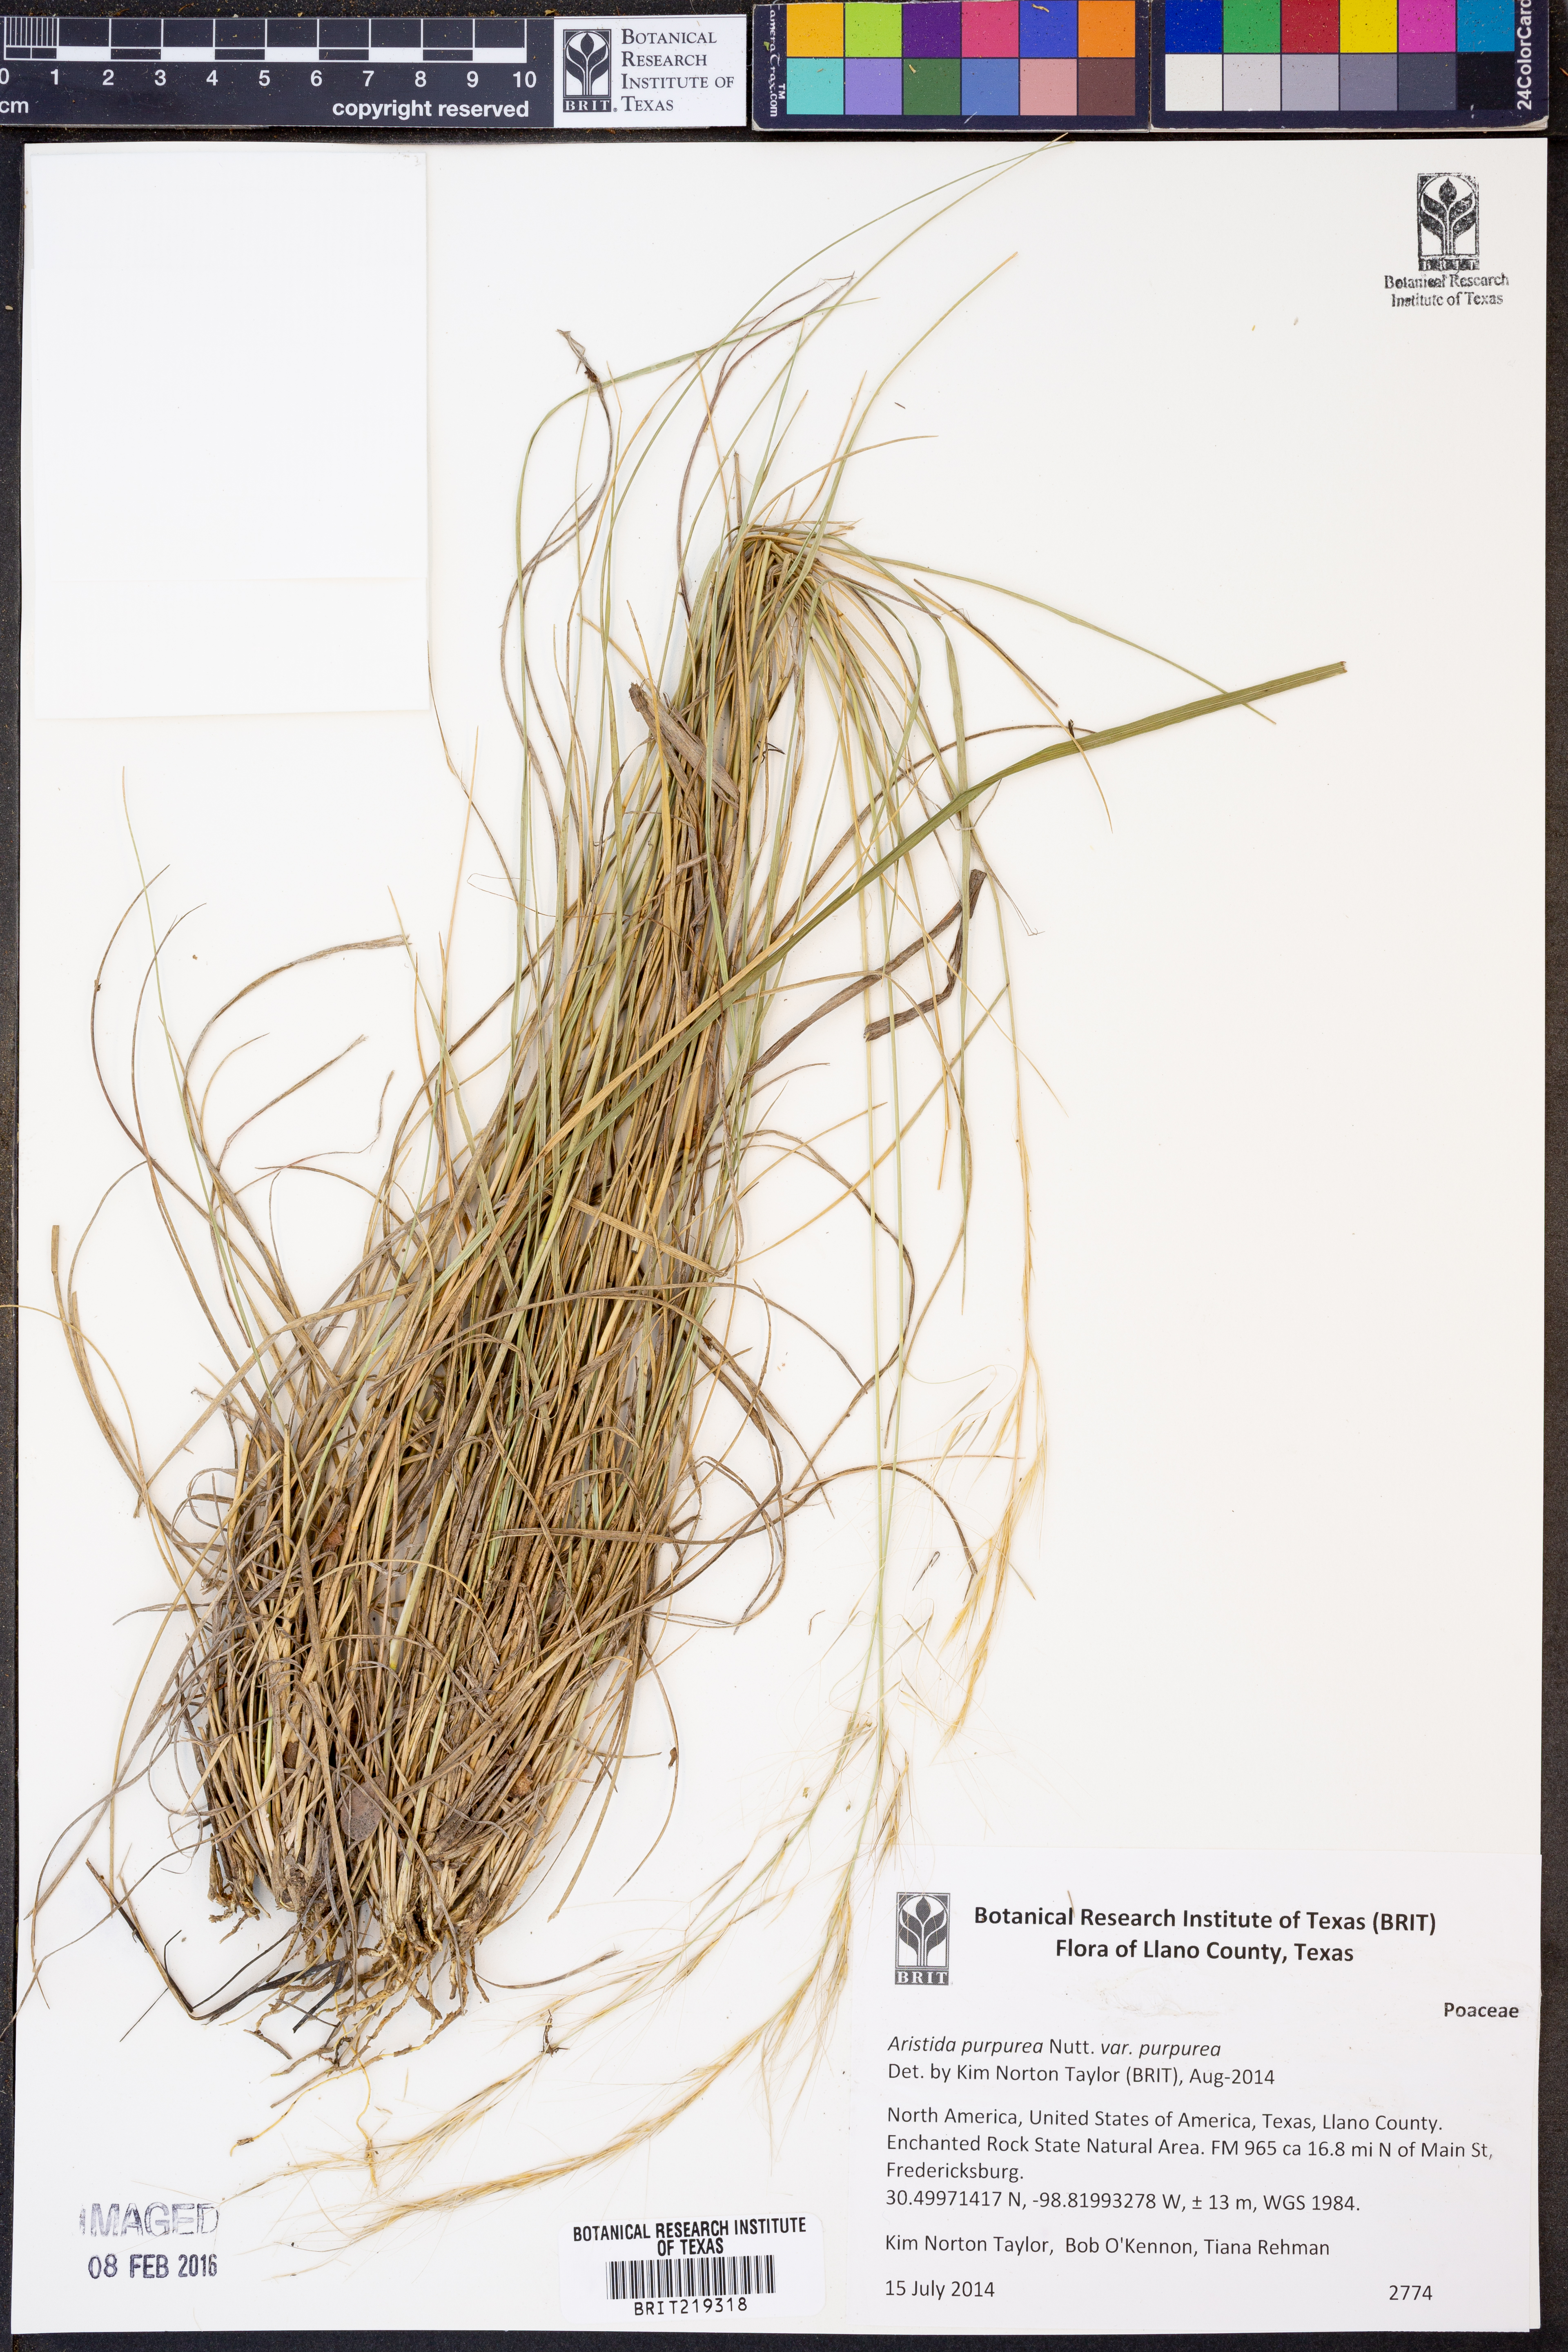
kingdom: Plantae
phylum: Tracheophyta
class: Liliopsida
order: Poales
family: Poaceae
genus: Aristida
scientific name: Aristida purpurea
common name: Purple threeawn
